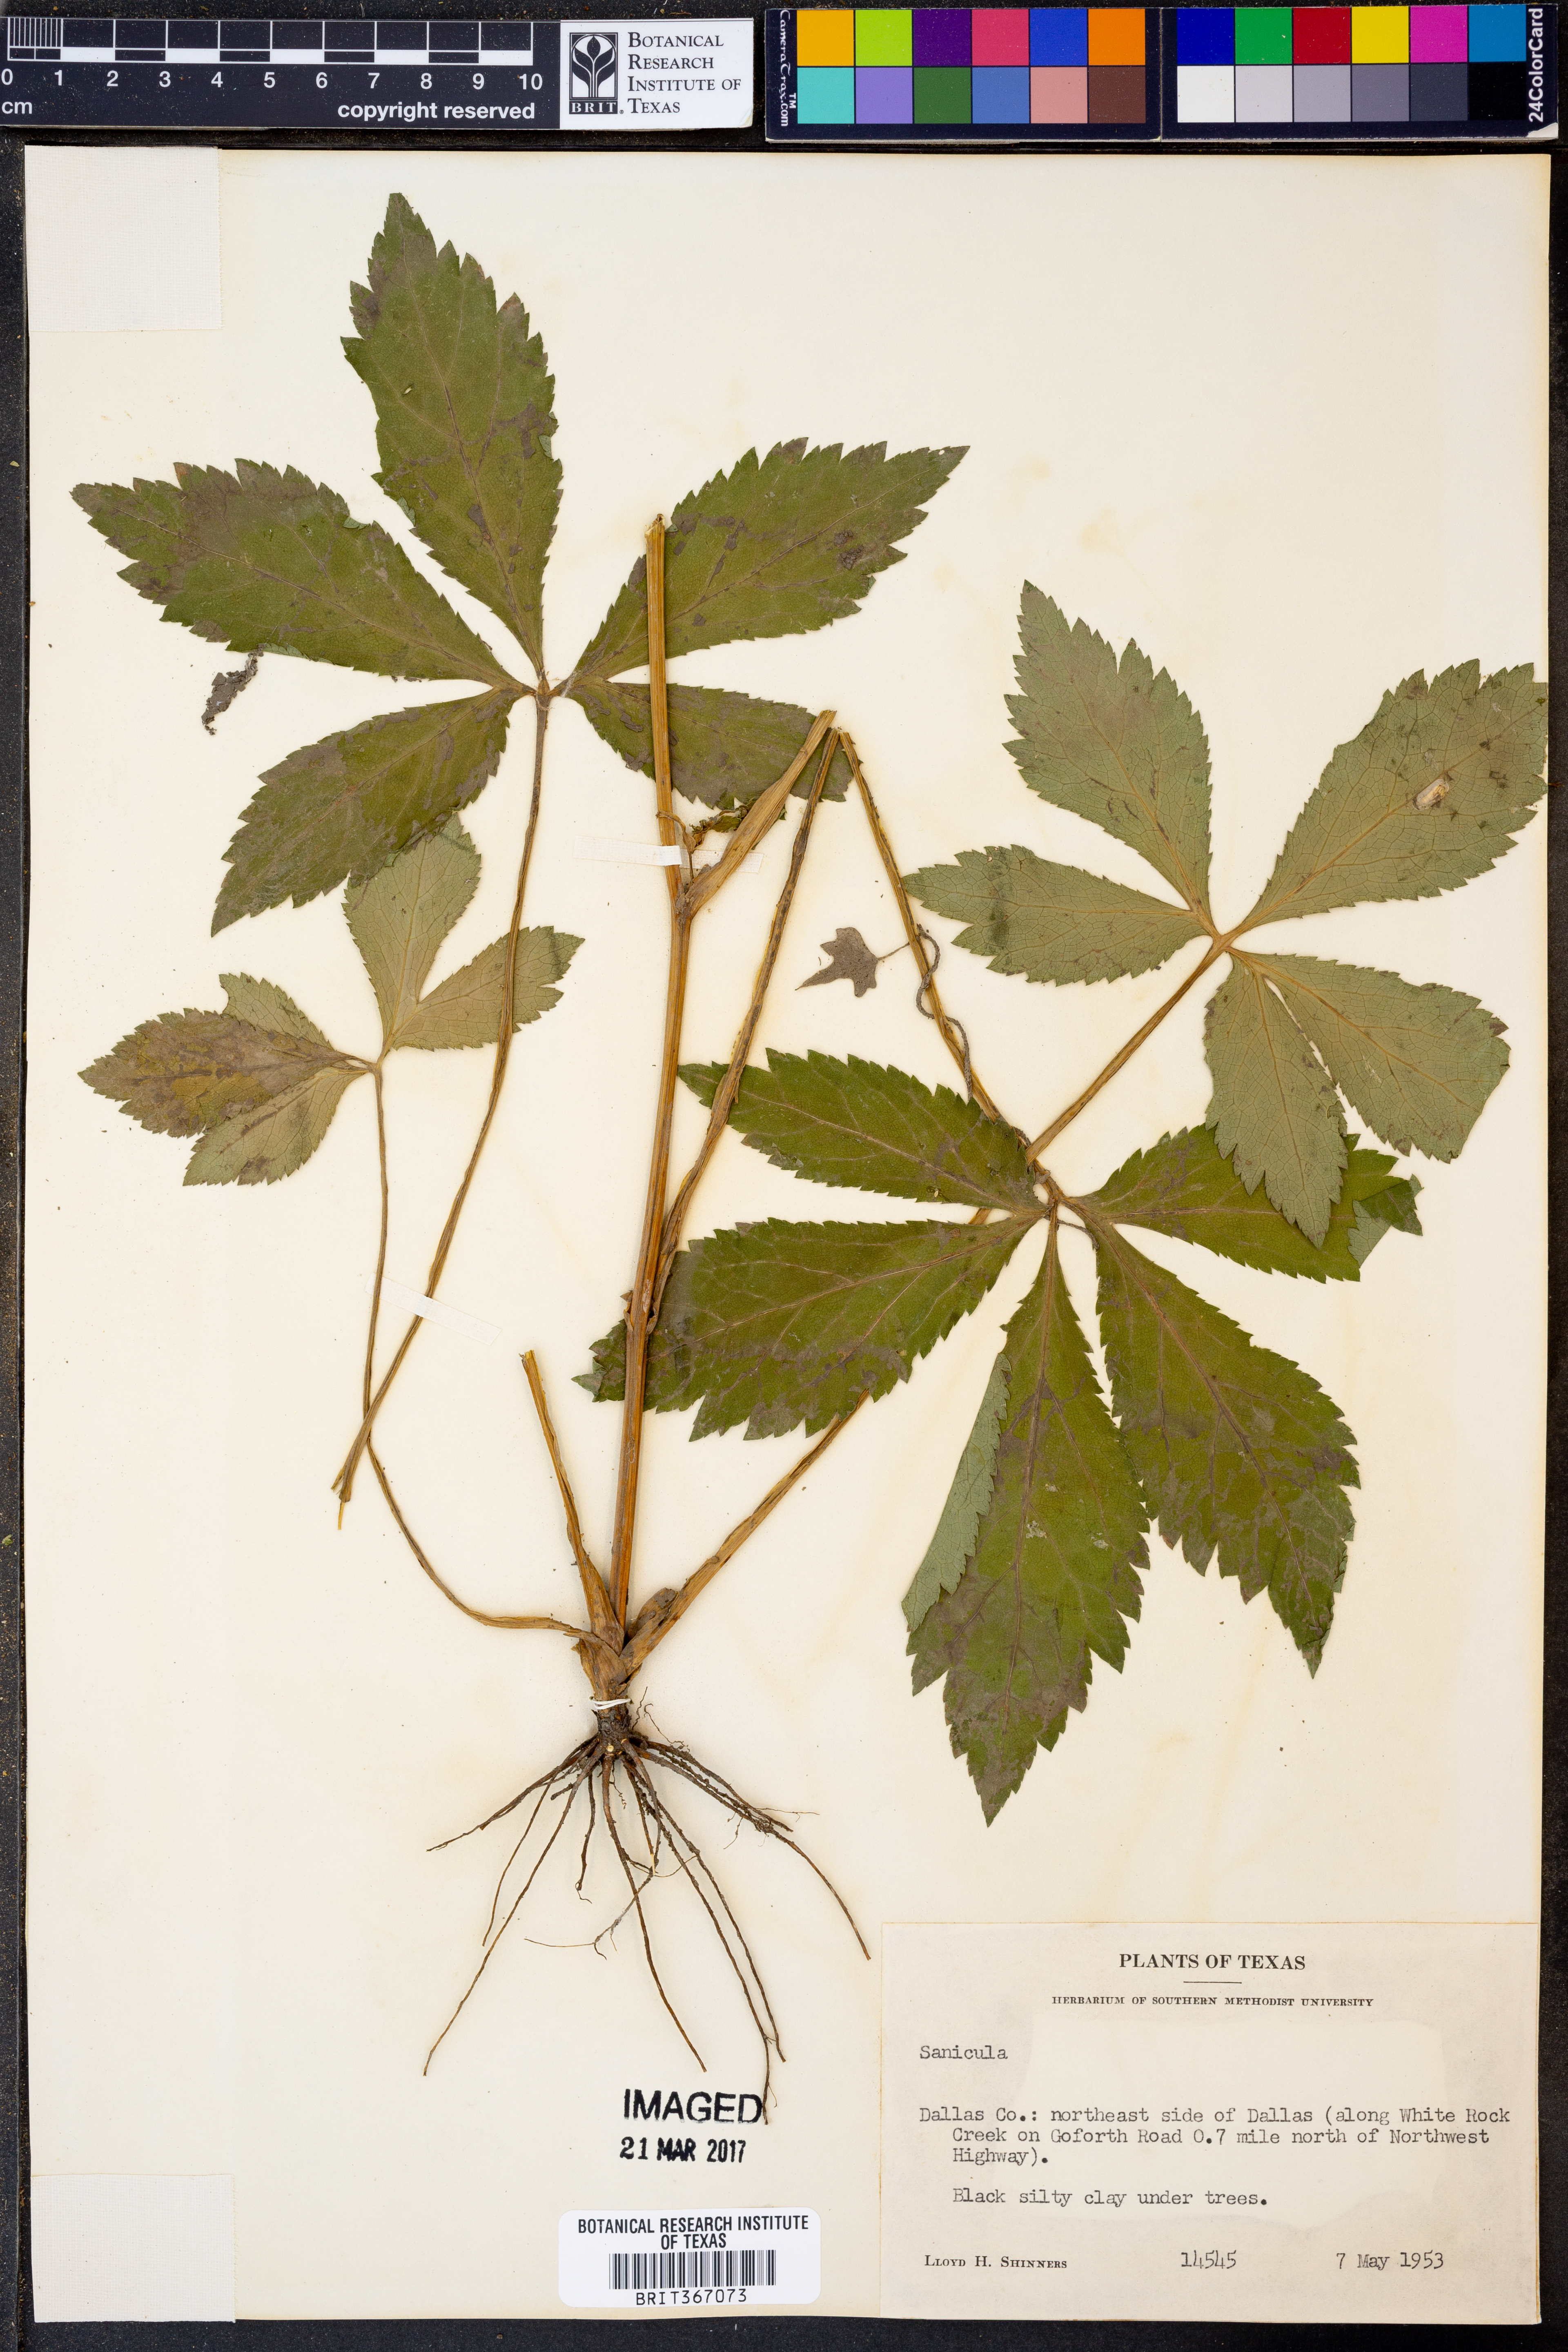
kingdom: Plantae
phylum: Tracheophyta
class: Magnoliopsida
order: Apiales
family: Apiaceae
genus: Sanicula
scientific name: Sanicula
